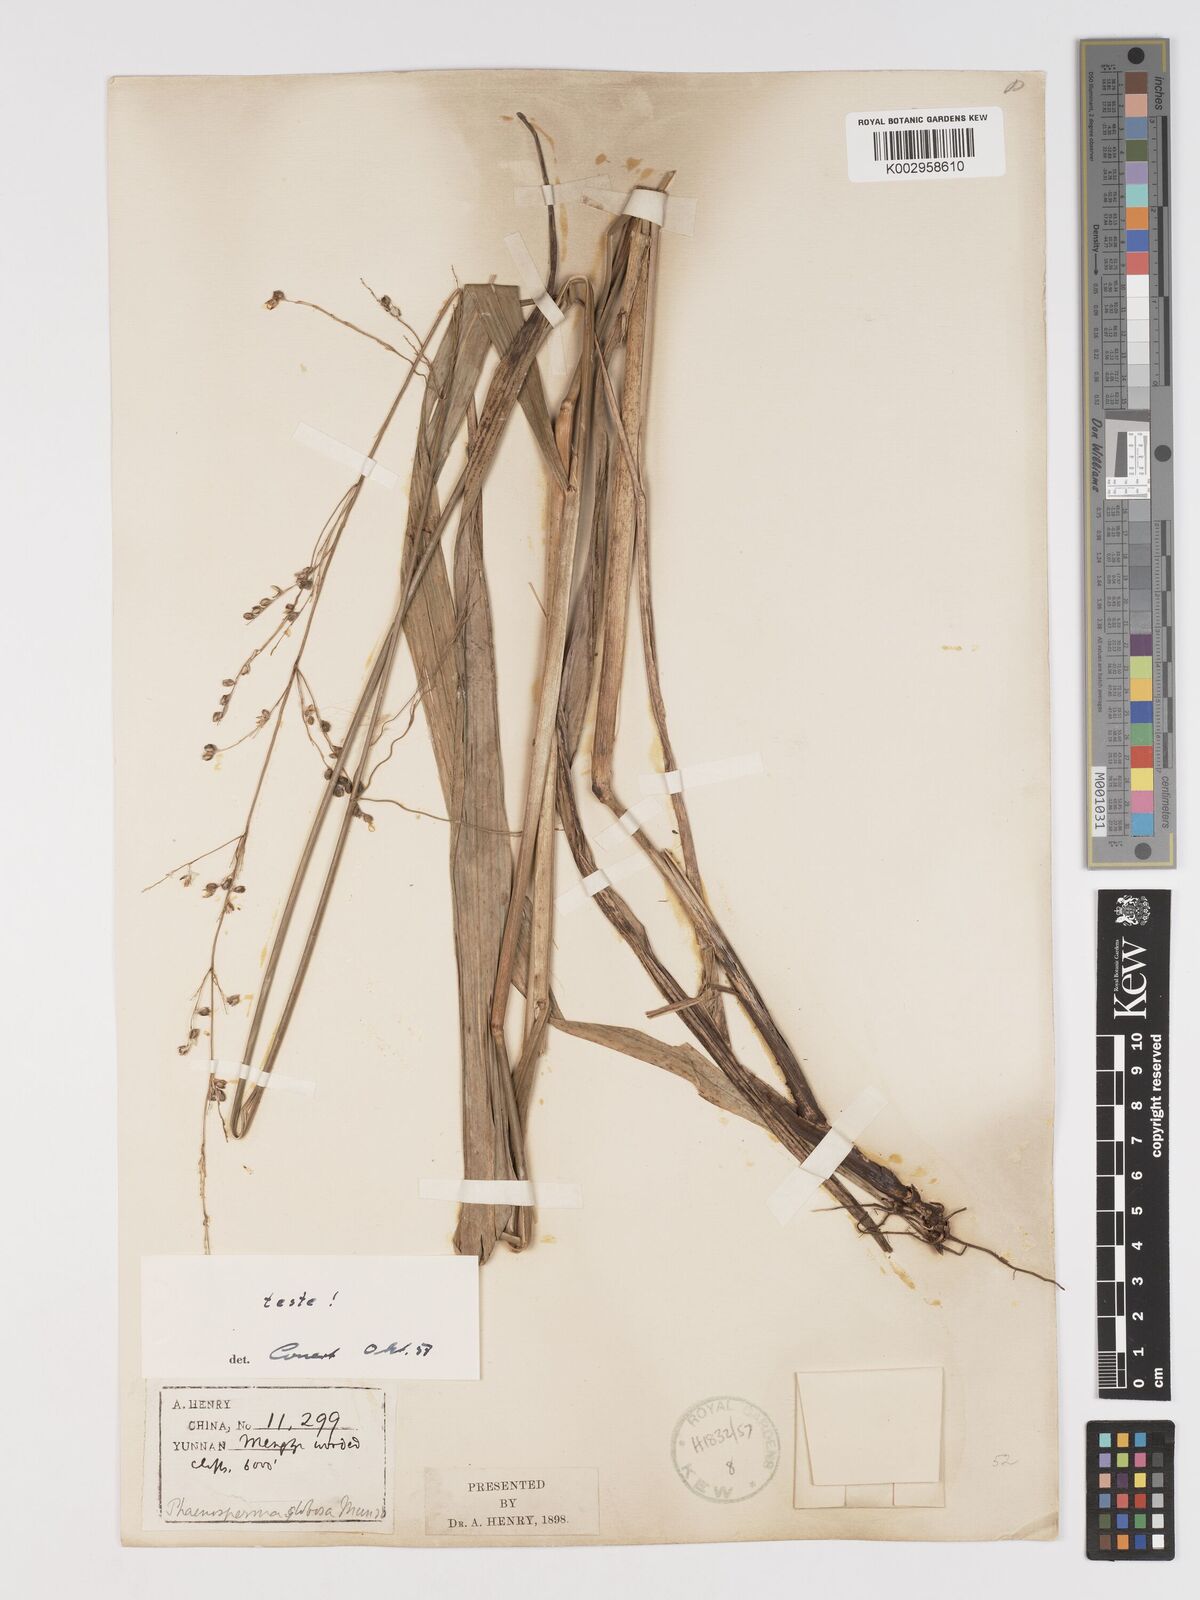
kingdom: Plantae
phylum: Tracheophyta
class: Liliopsida
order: Poales
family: Poaceae
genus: Phaenosperma
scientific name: Phaenosperma globosum
